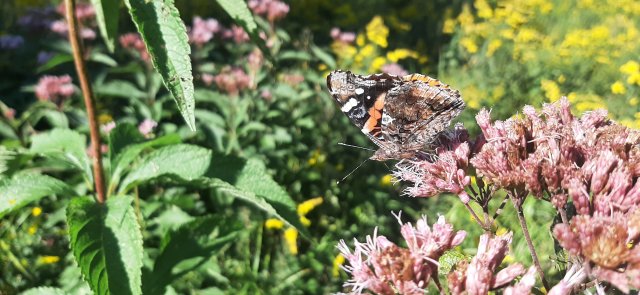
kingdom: Animalia
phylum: Arthropoda
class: Insecta
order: Lepidoptera
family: Nymphalidae
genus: Vanessa
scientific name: Vanessa atalanta
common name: Red Admiral
